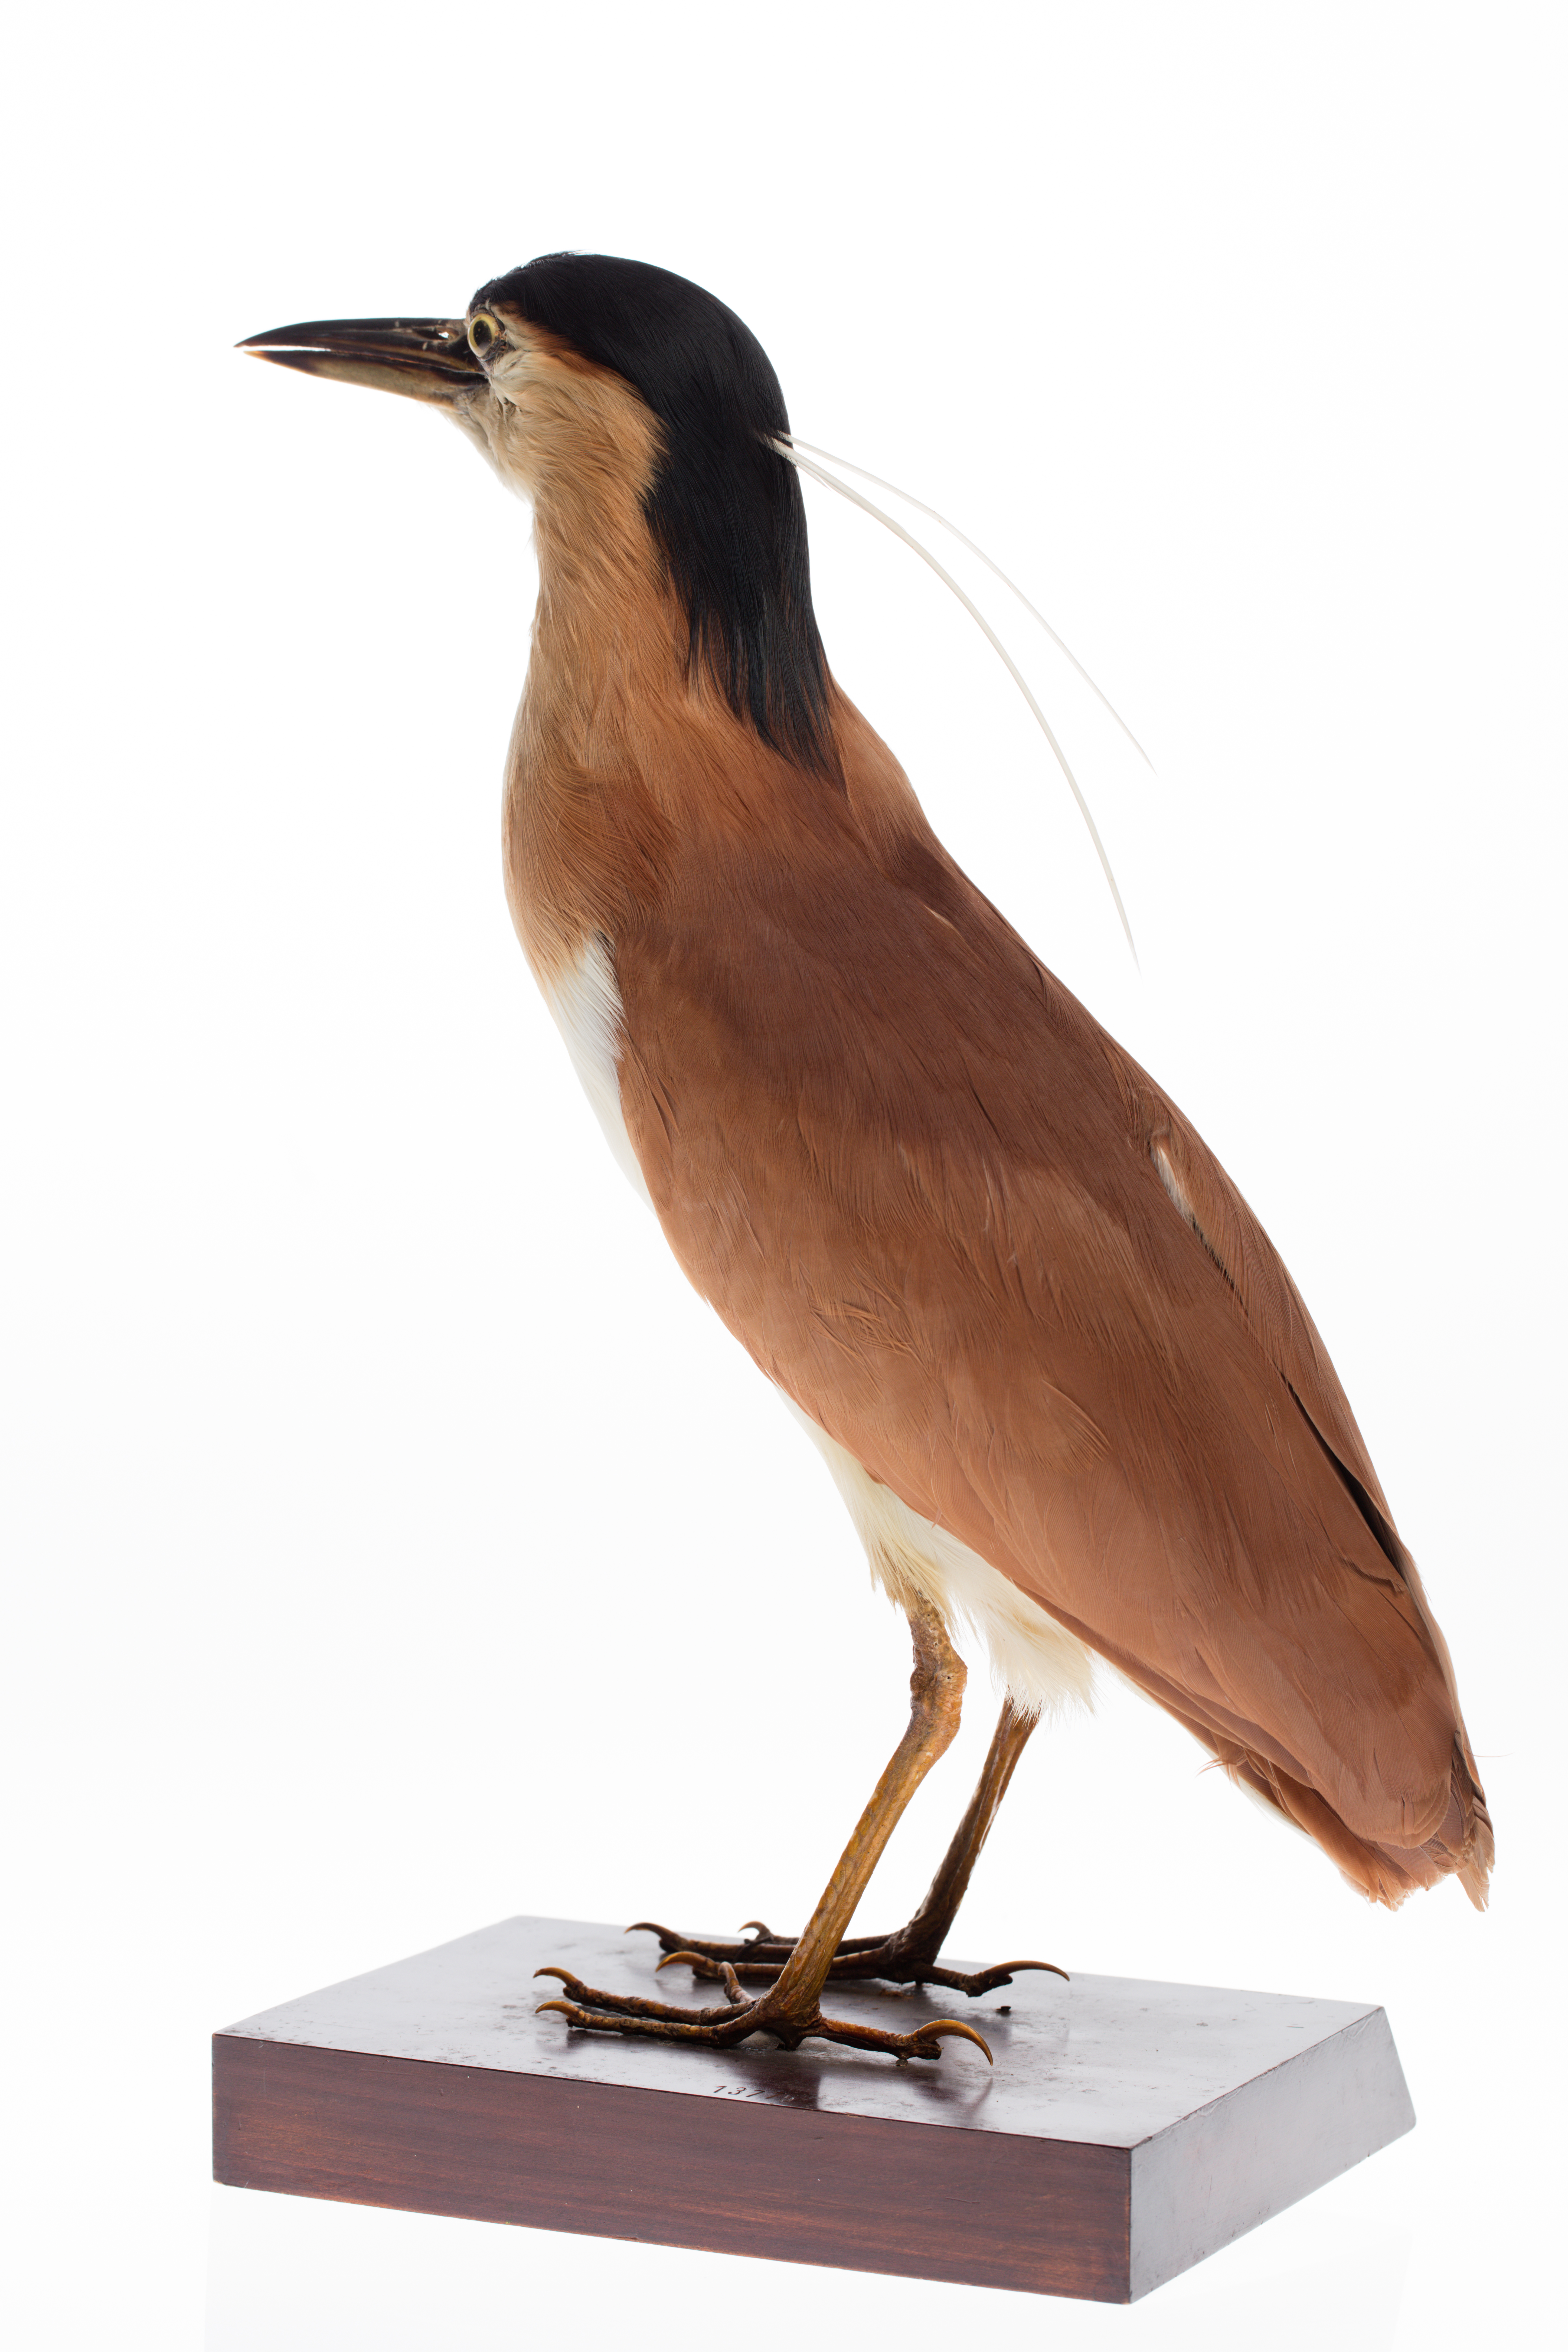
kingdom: Animalia
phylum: Chordata
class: Aves
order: Pelecaniformes
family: Ardeidae
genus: Nycticorax
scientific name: Nycticorax caledonicus
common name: Rufous night-heron
